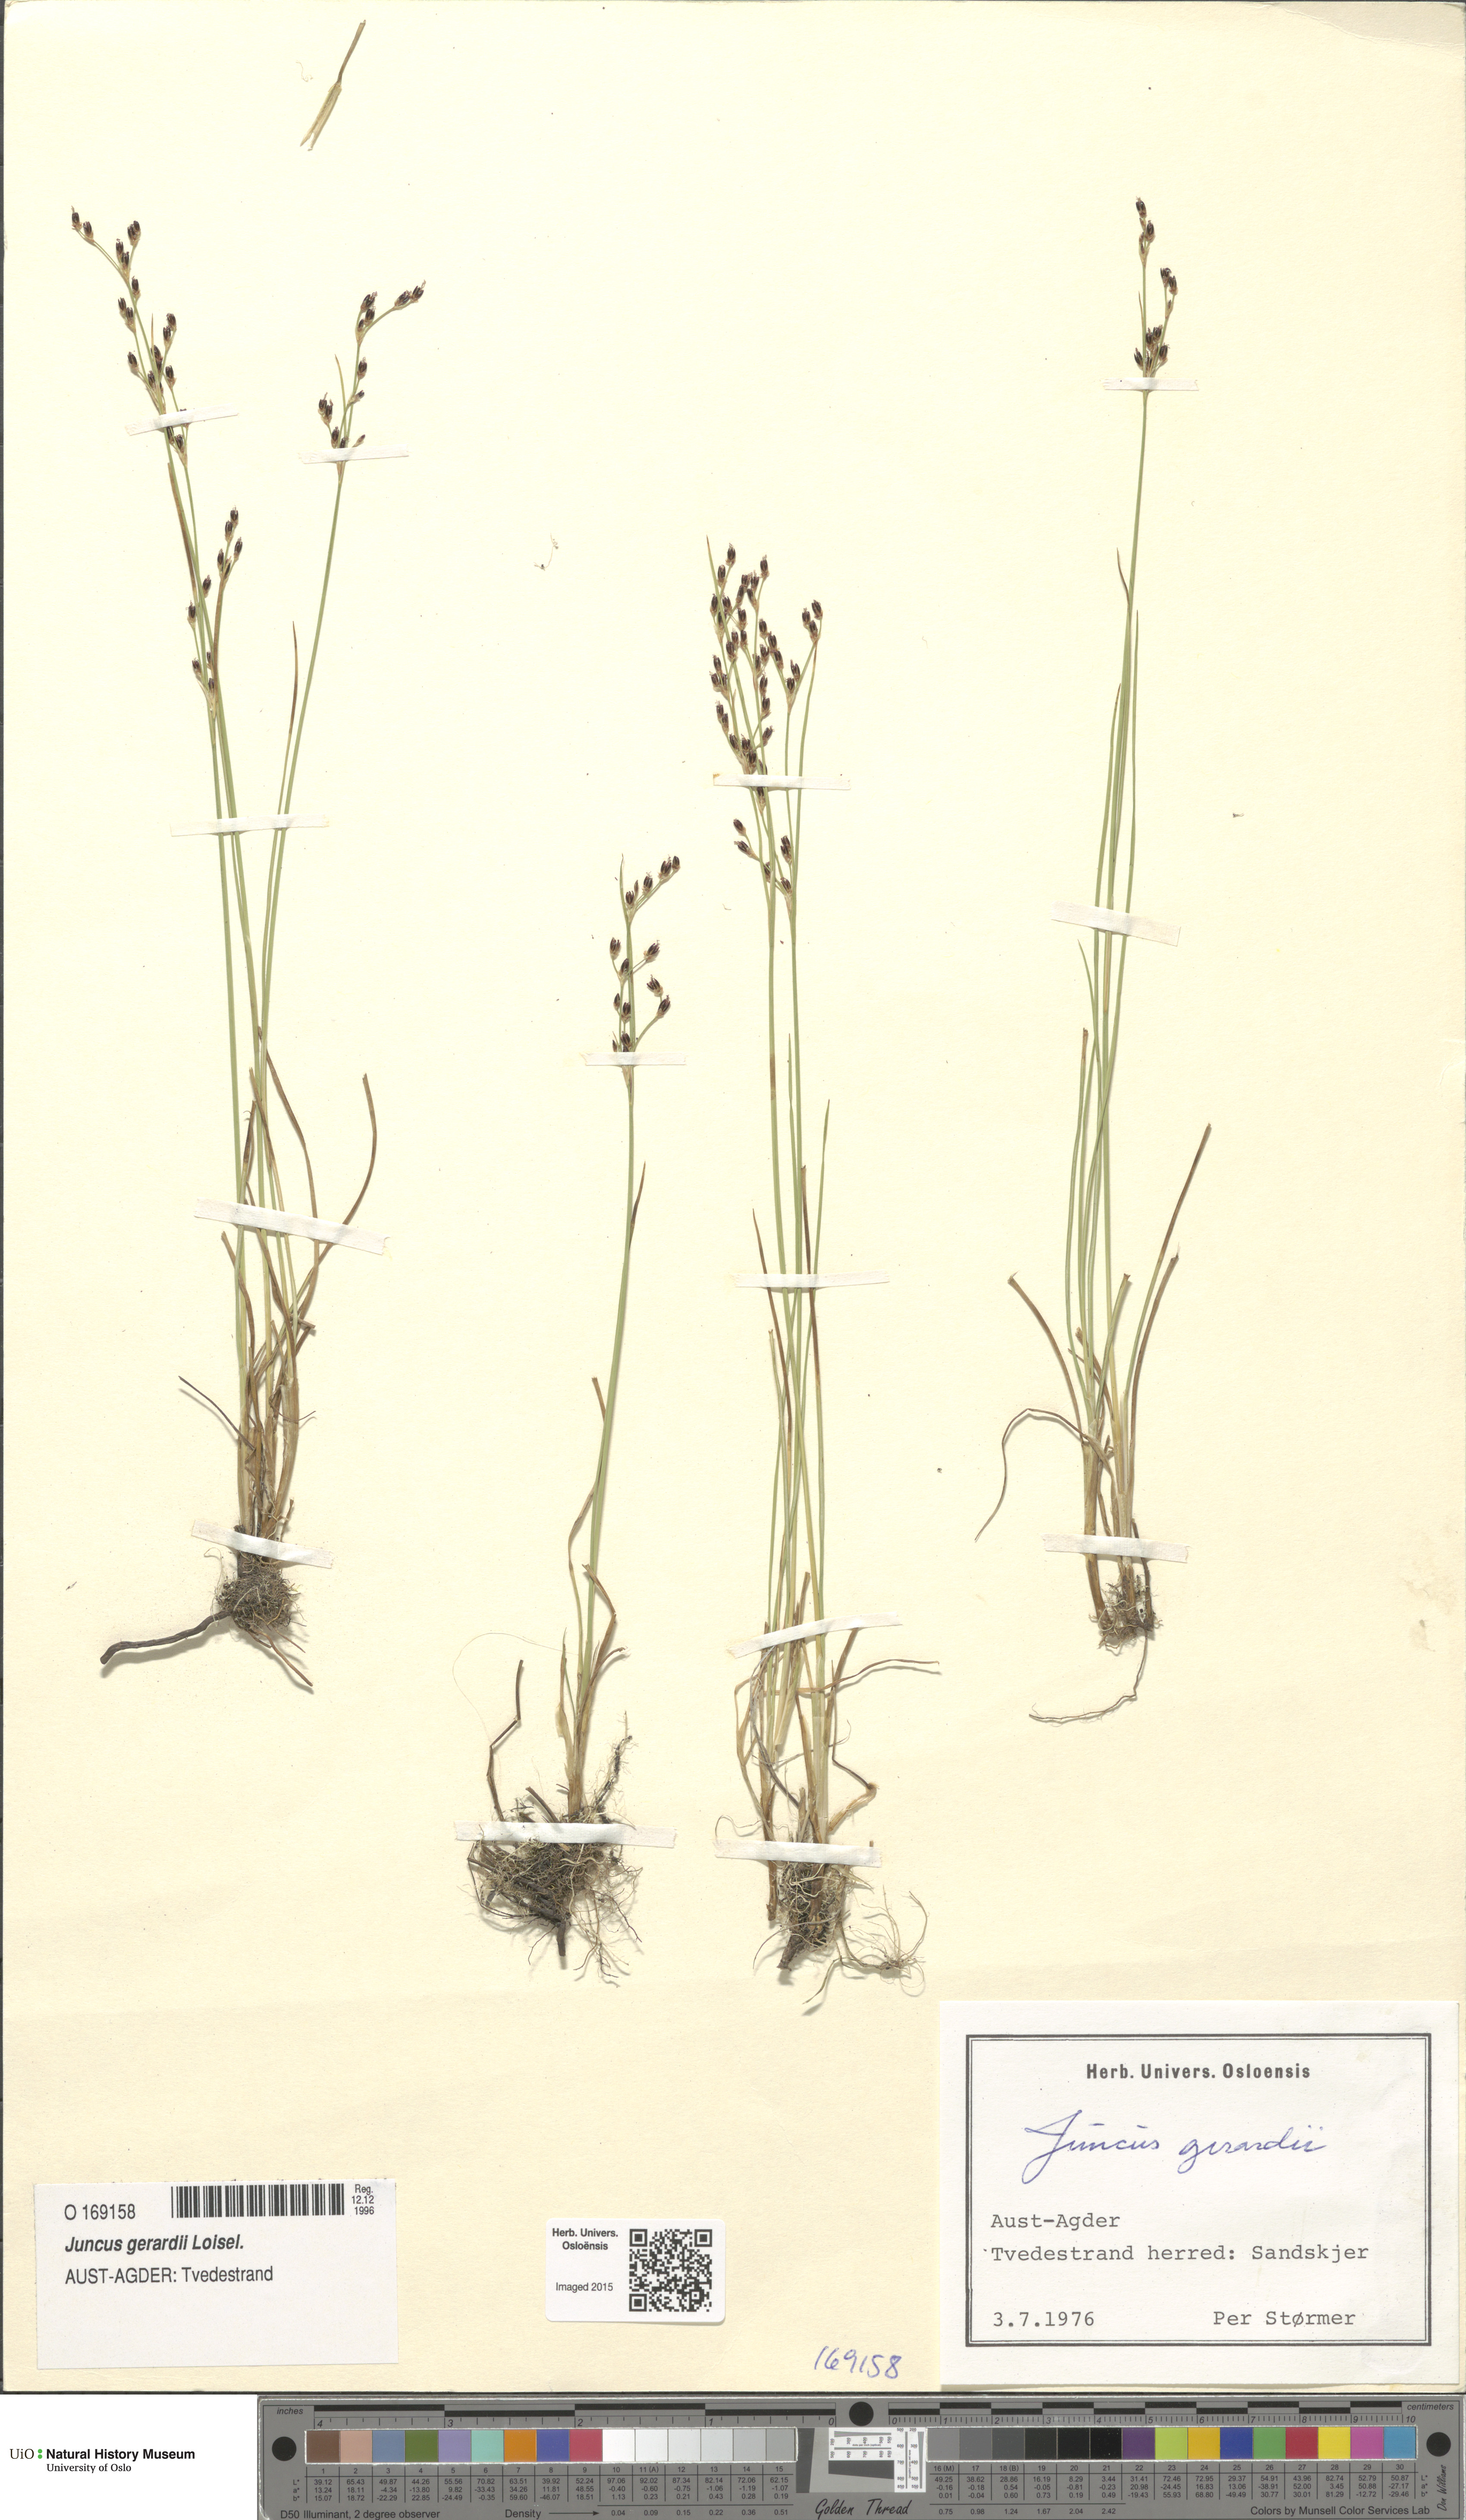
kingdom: Plantae
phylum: Tracheophyta
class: Liliopsida
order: Poales
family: Juncaceae
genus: Juncus
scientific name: Juncus gerardi
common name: Saltmarsh rush
